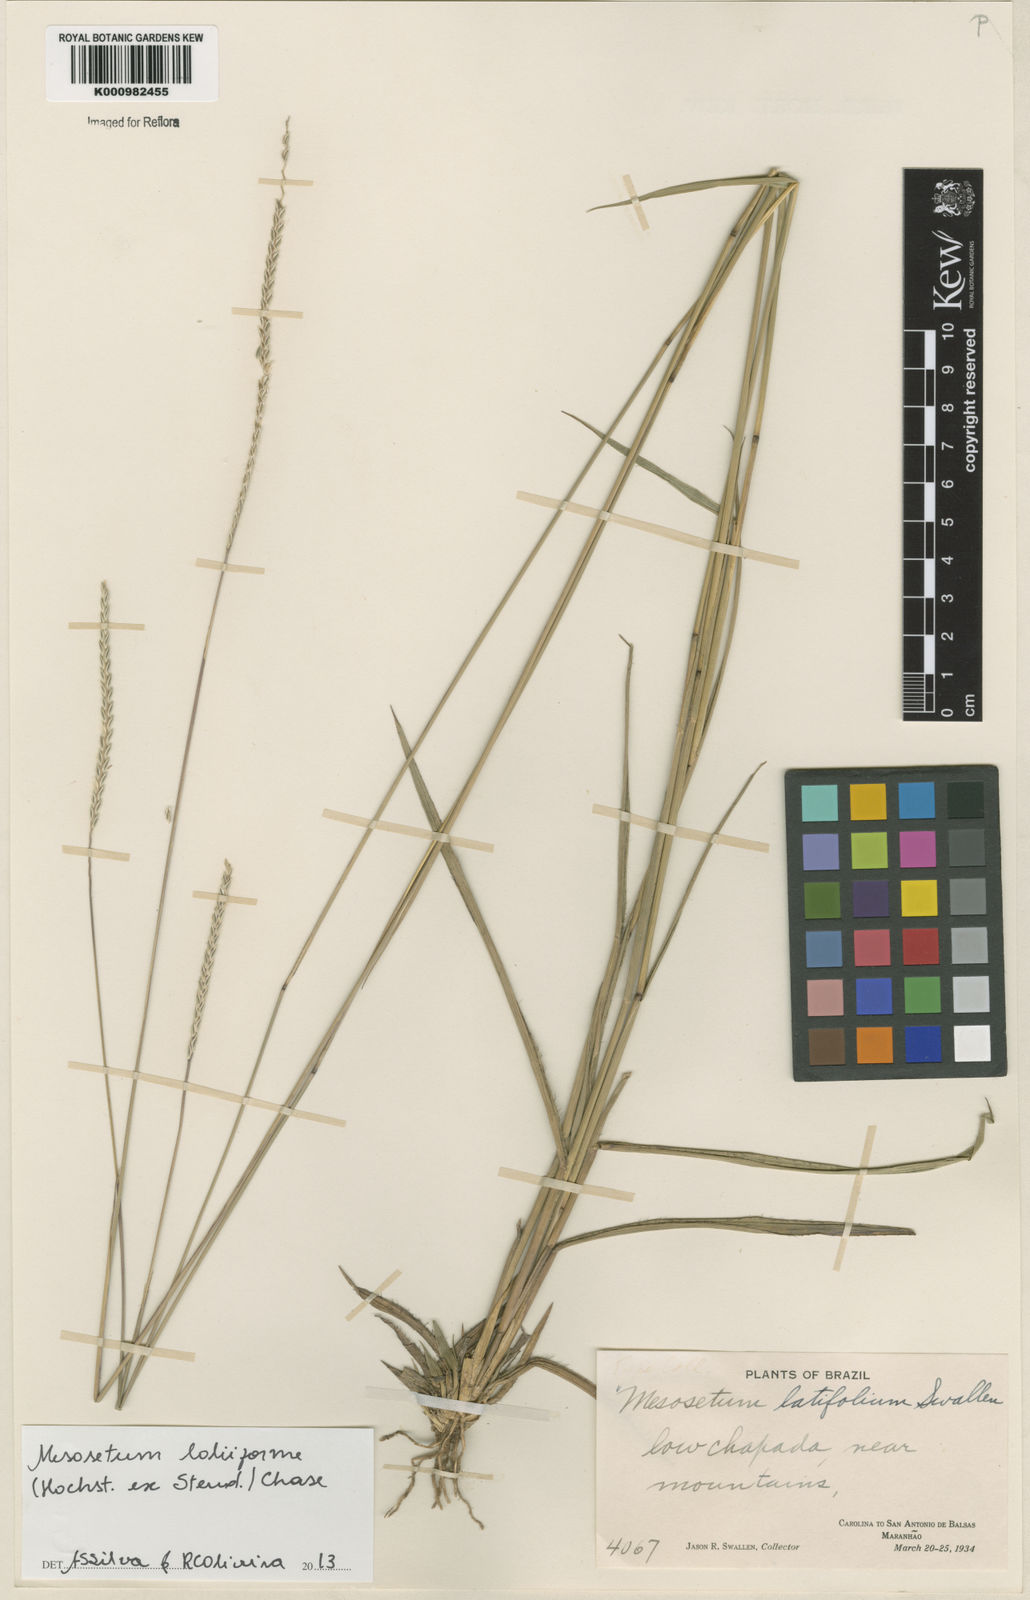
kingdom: Plantae
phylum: Tracheophyta
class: Liliopsida
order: Poales
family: Poaceae
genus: Mesosetum
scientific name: Mesosetum
